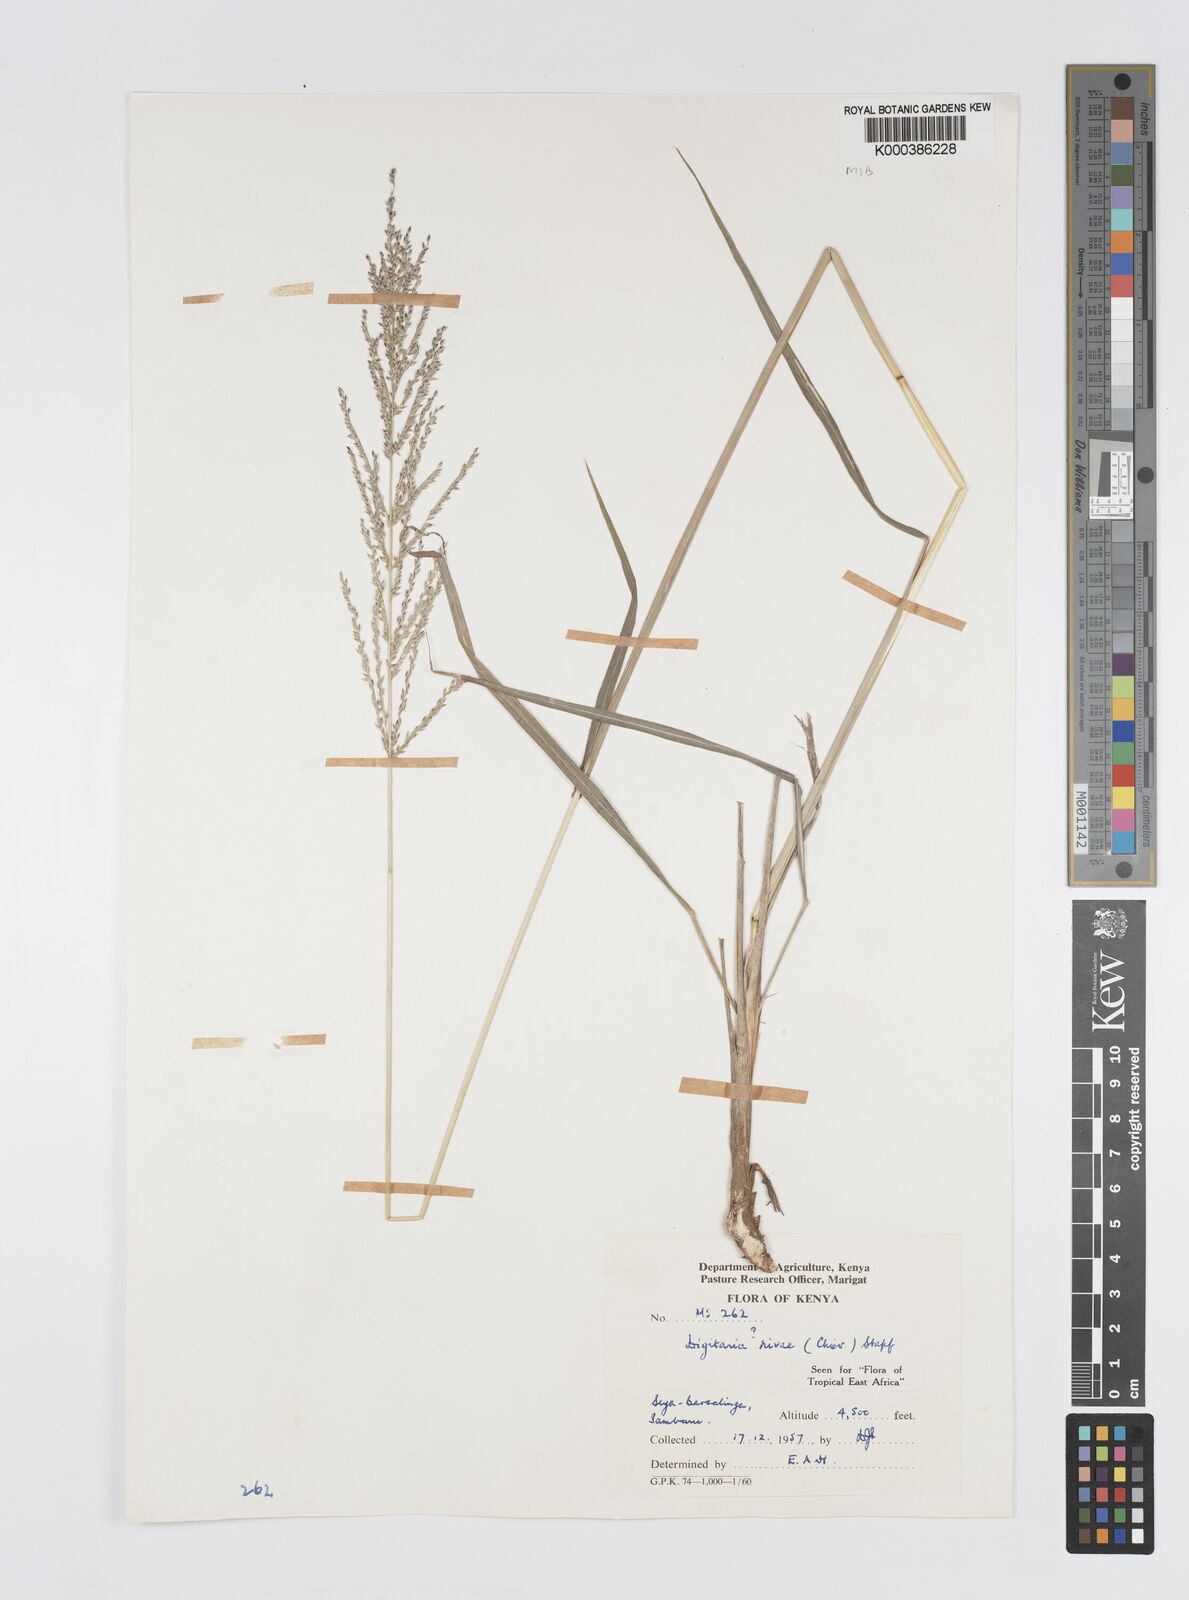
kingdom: Plantae
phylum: Tracheophyta
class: Liliopsida
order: Poales
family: Poaceae
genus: Digitaria
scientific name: Digitaria rivae
